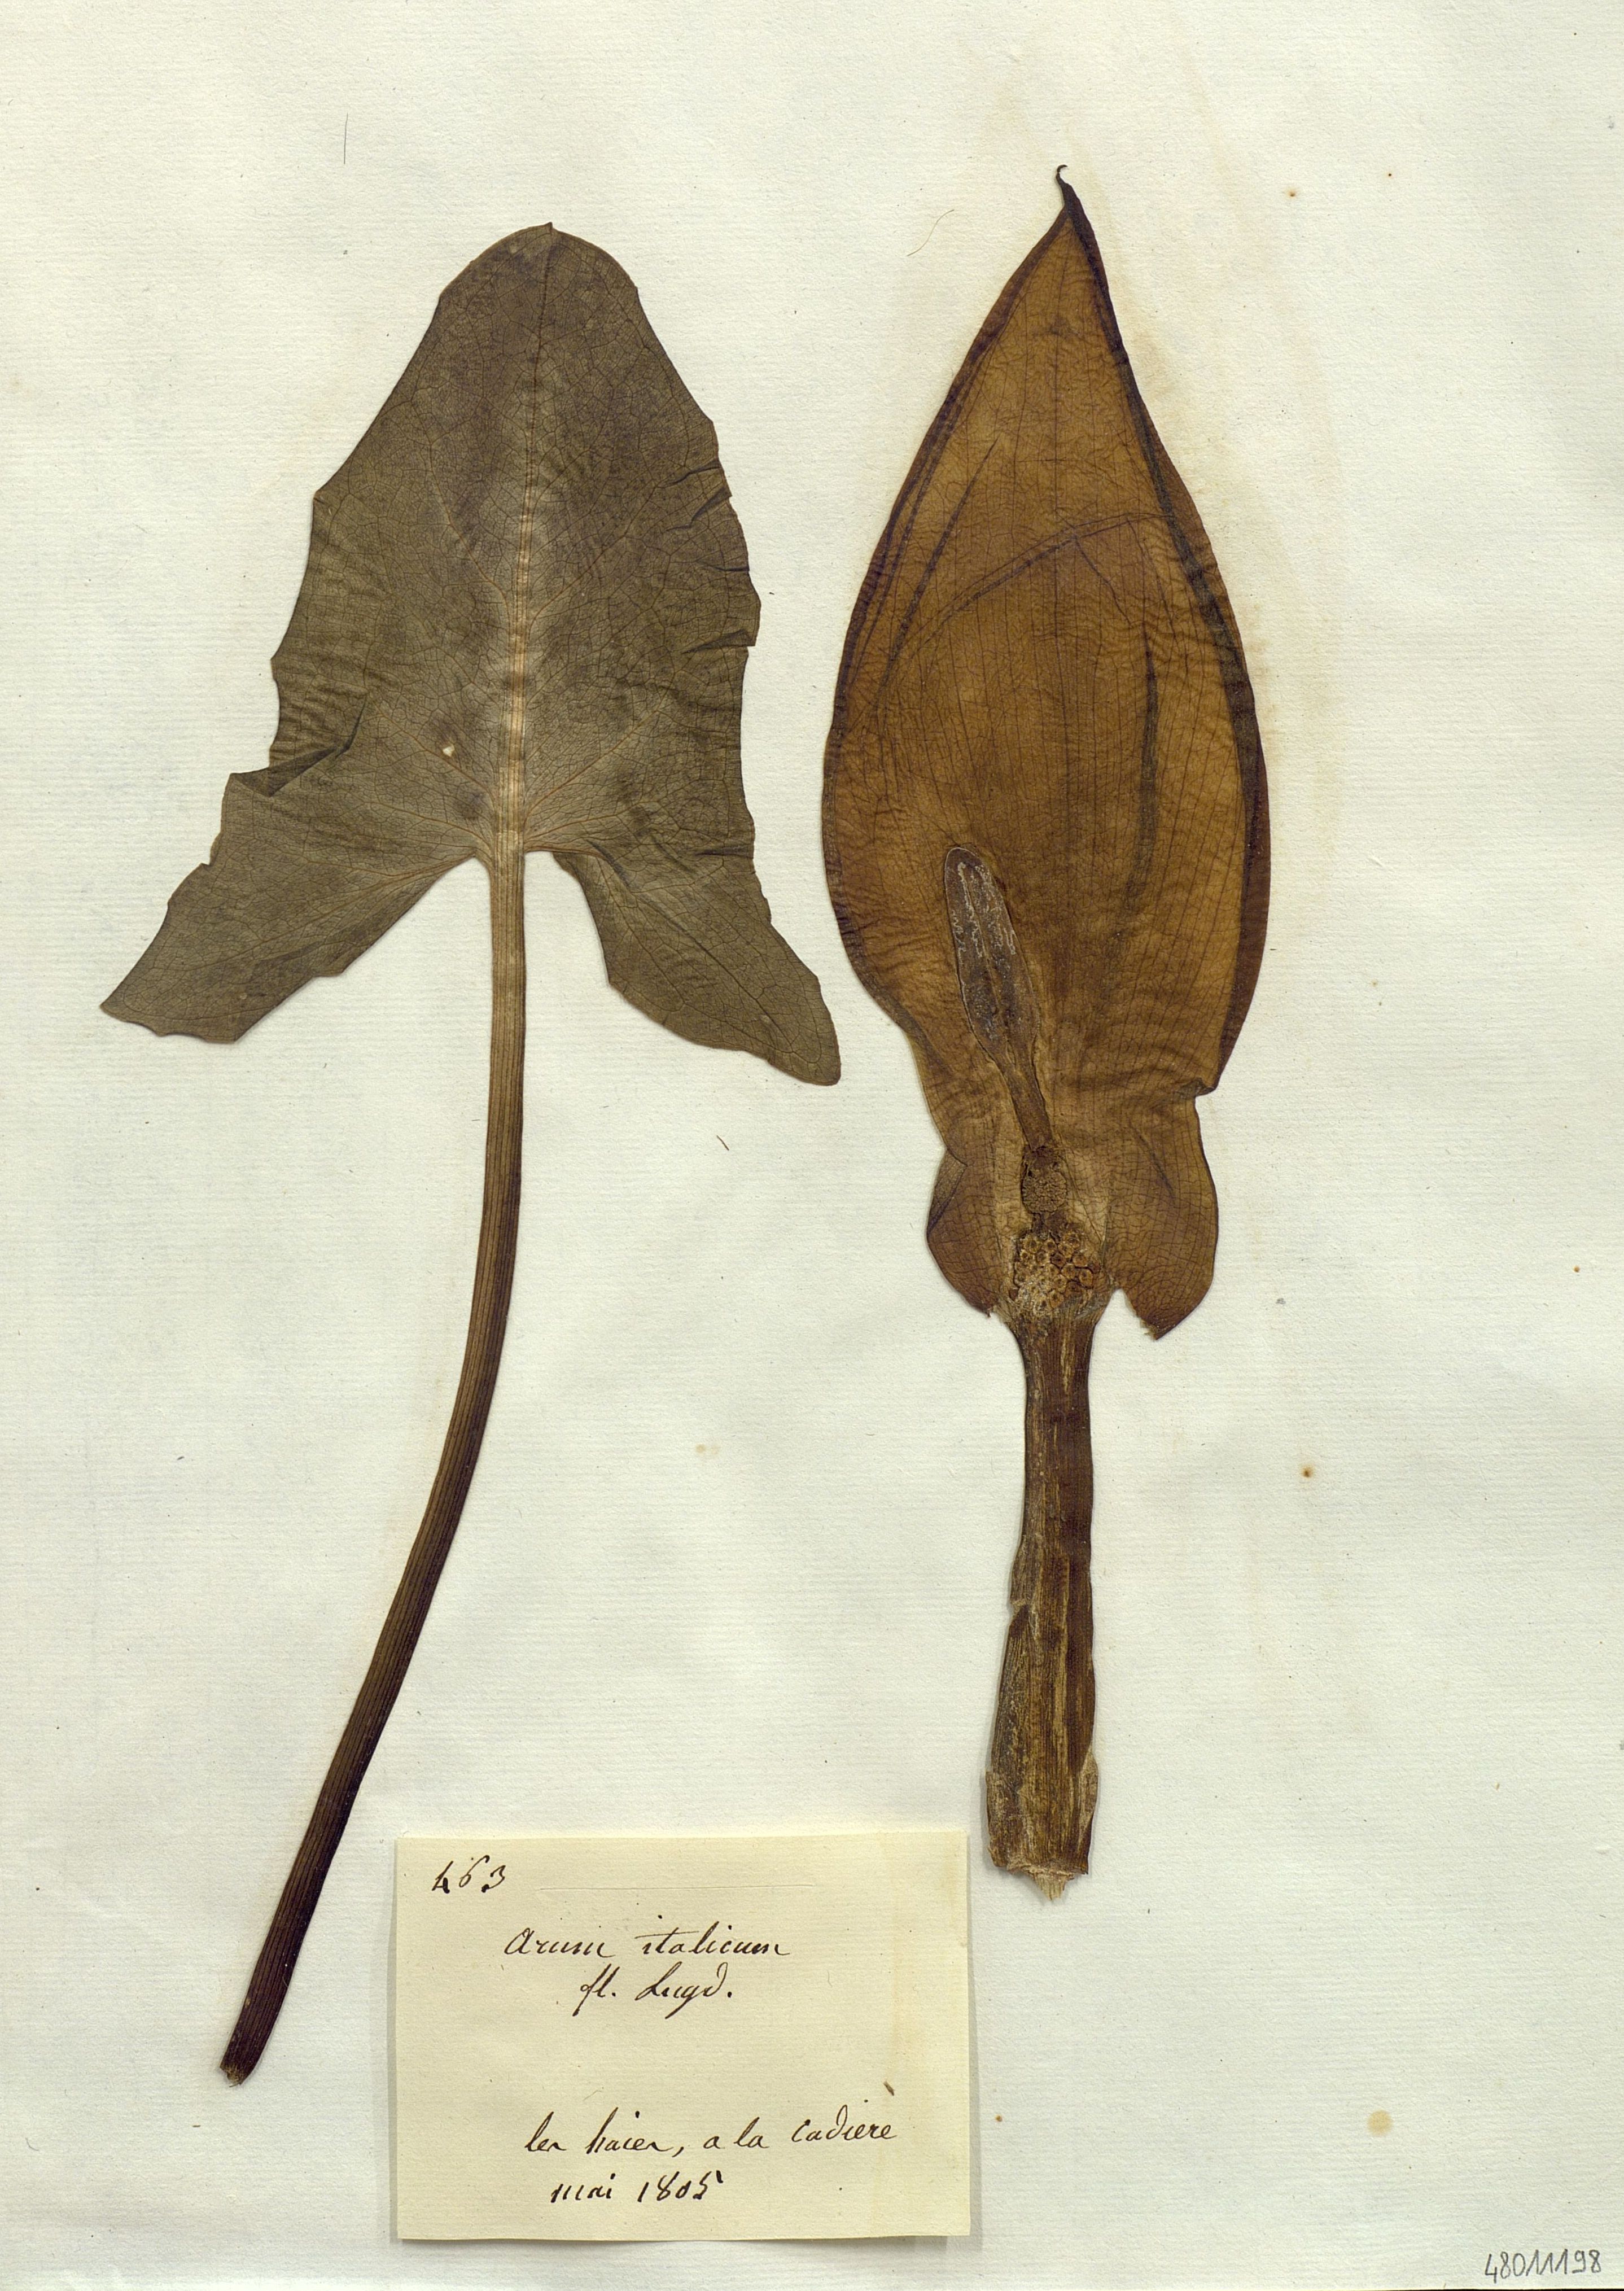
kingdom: Plantae
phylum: Tracheophyta
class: Liliopsida
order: Alismatales
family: Araceae
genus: Arum
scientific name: Arum italicum
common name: Italian lords-and-ladies
